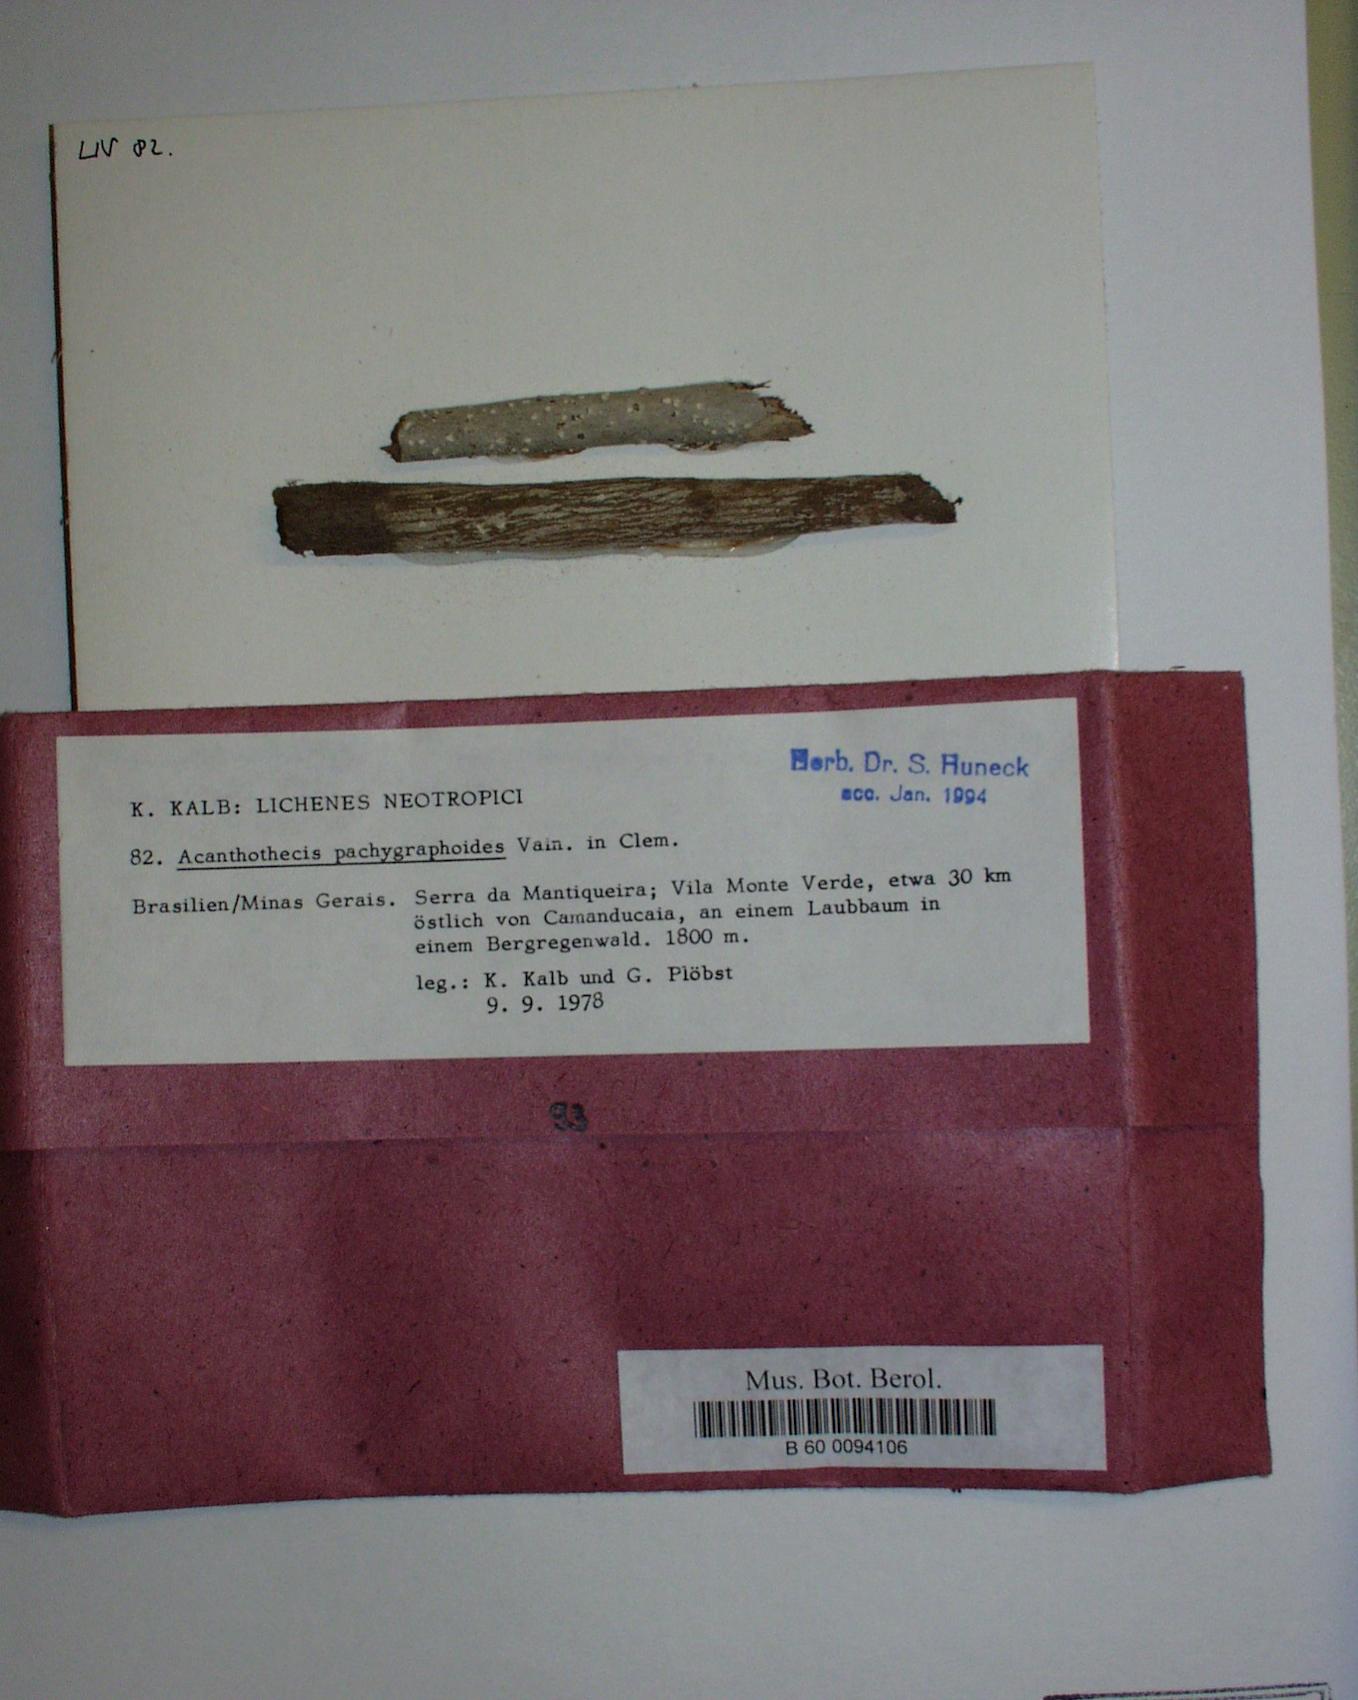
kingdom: Fungi
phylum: Ascomycota
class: Lecanoromycetes
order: Ostropales
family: Graphidaceae
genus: Acanthothecis
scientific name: Acanthothecis pachygraphoides
